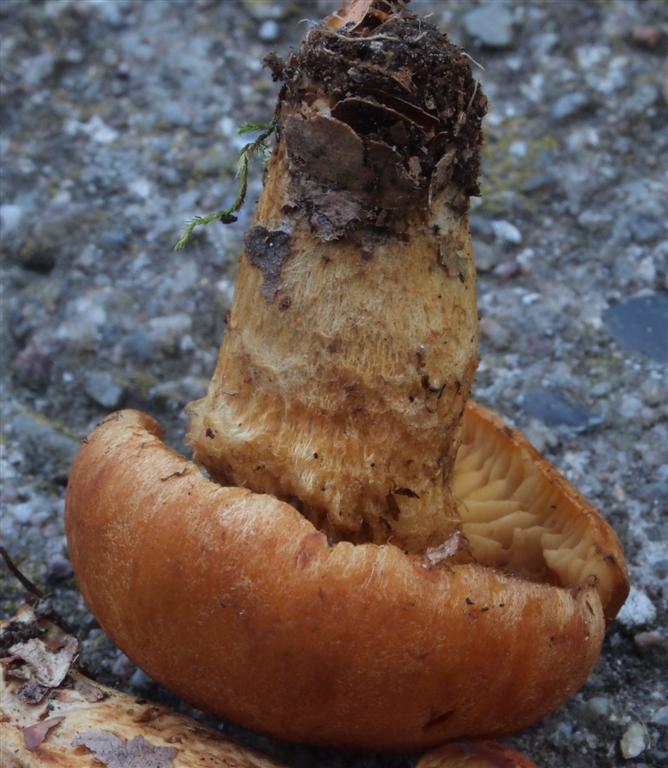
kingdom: Fungi
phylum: Basidiomycota
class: Agaricomycetes
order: Agaricales
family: Cortinariaceae
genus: Aureonarius
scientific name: Aureonarius tofaceus
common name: ravgul slørhat
